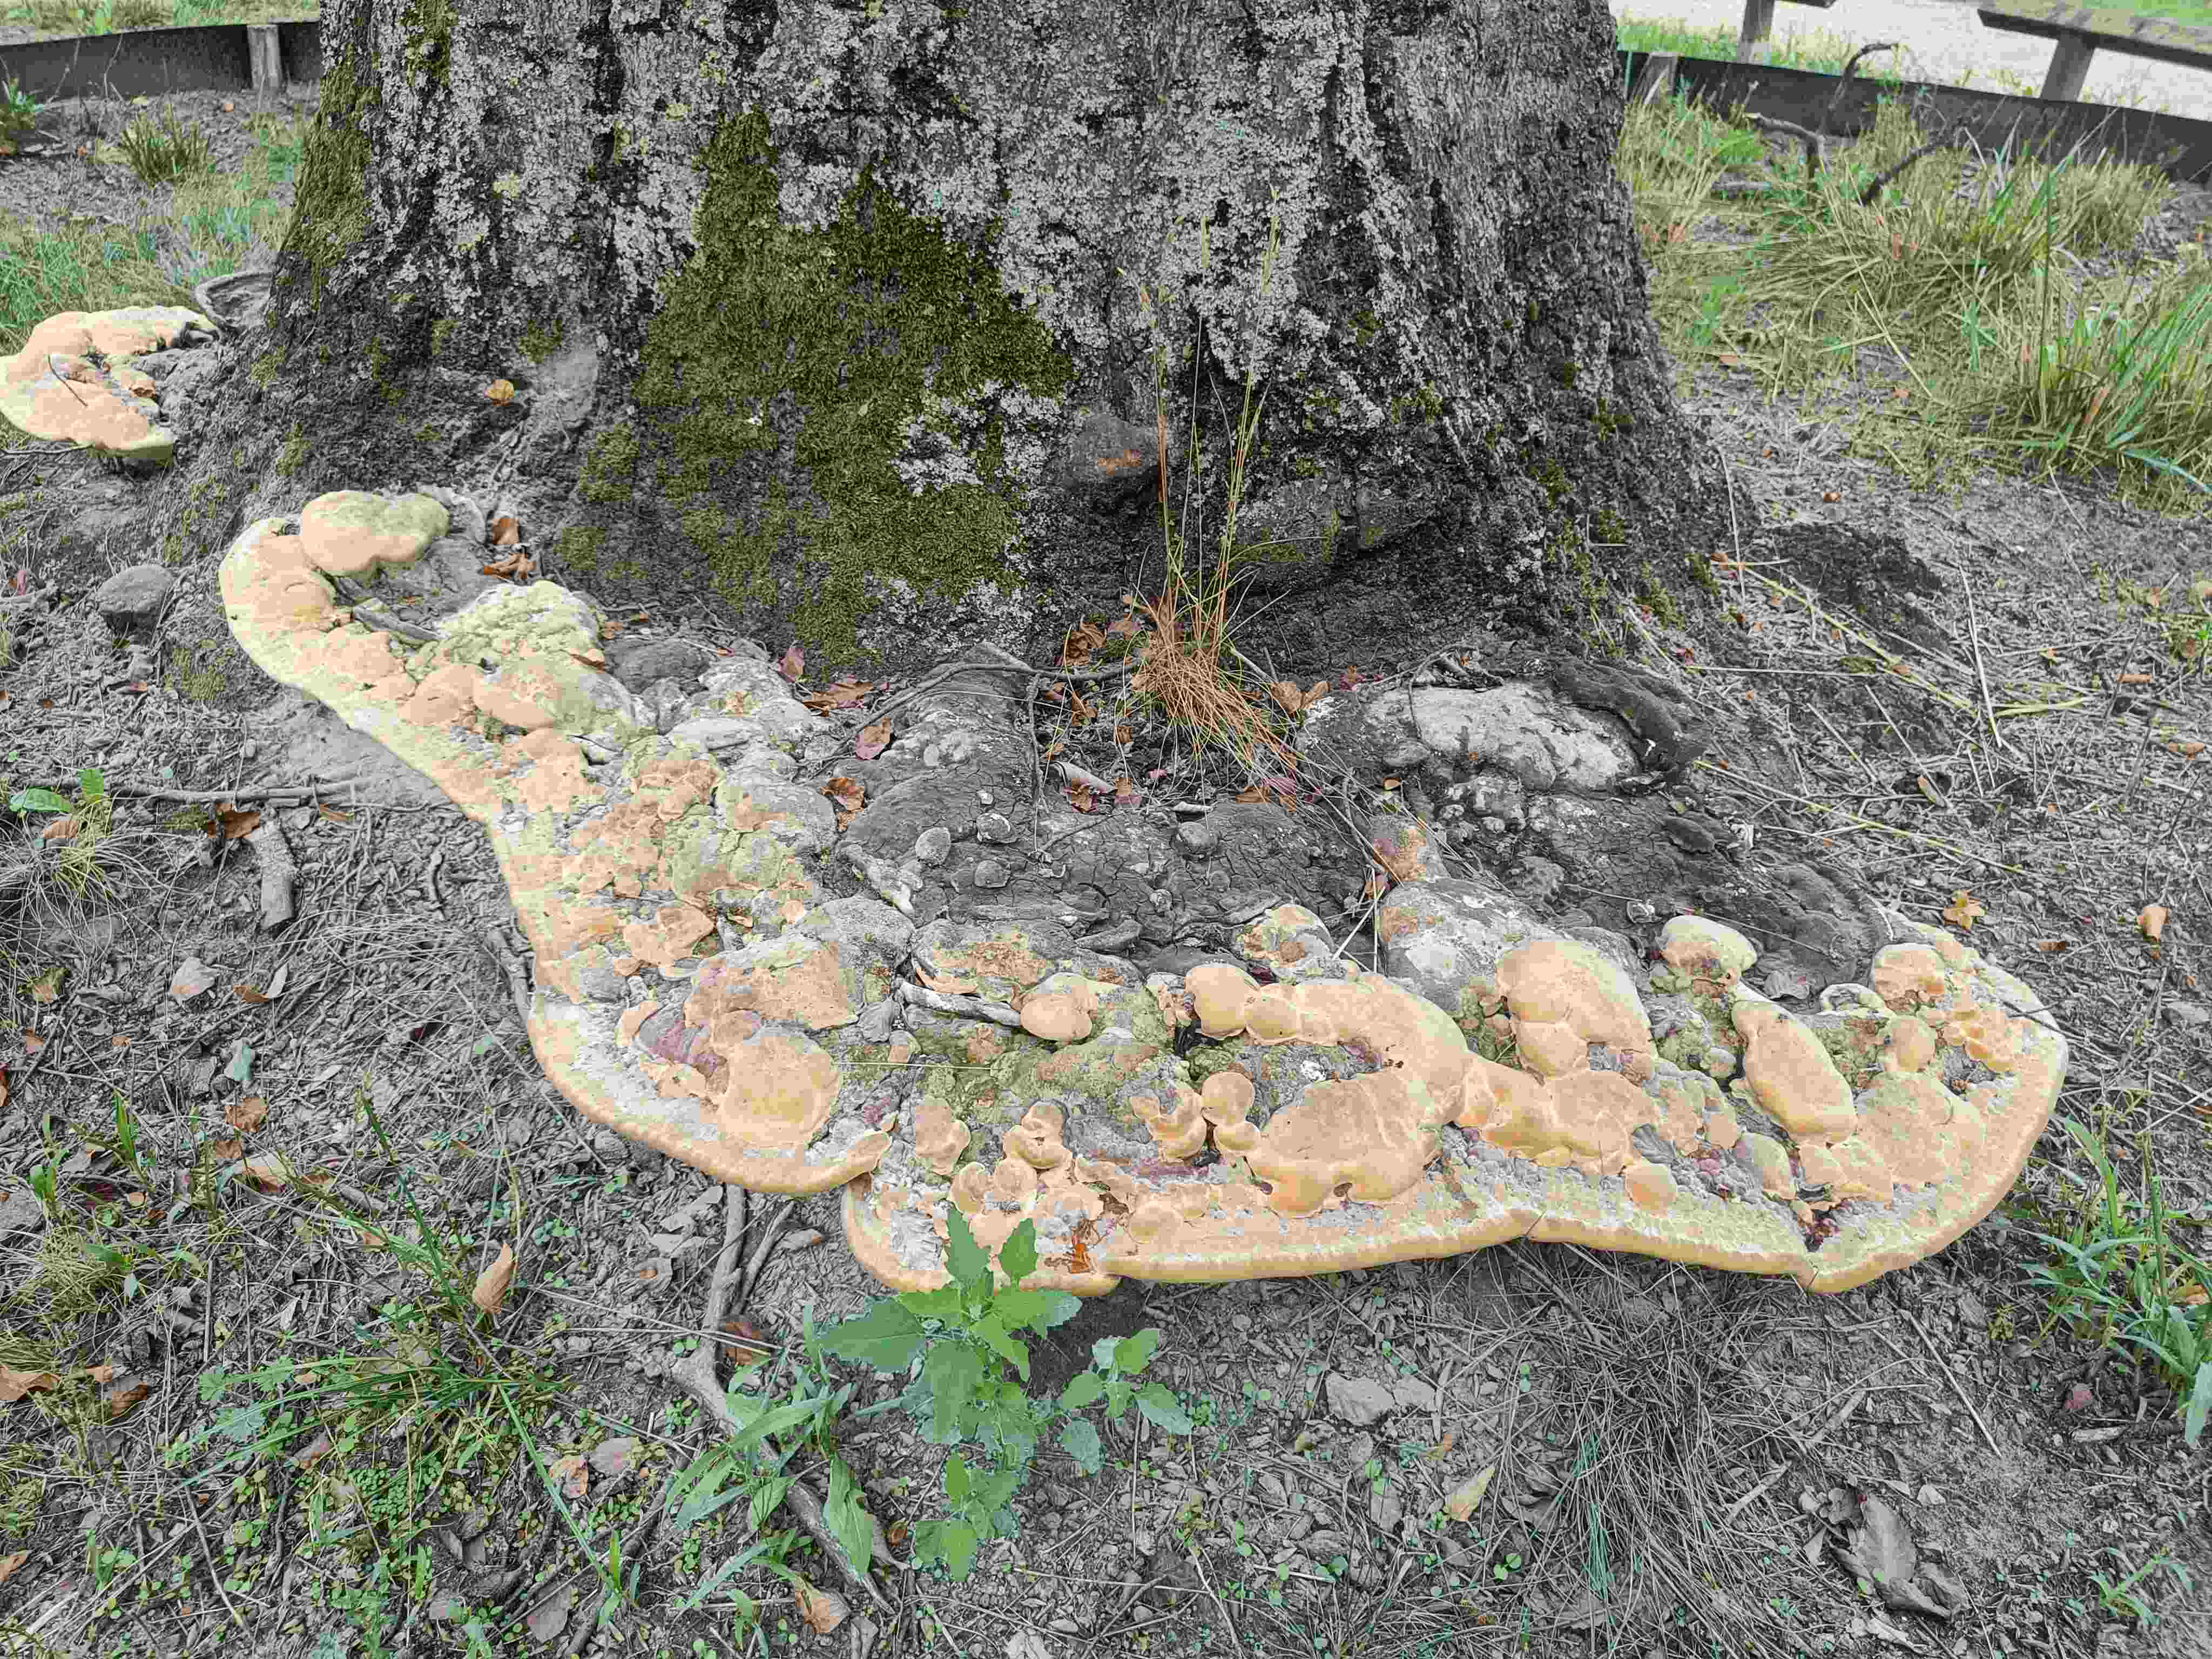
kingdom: Fungi
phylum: Basidiomycota
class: Agaricomycetes
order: Polyporales
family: Polyporaceae
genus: Ganoderma
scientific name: Ganoderma adspersum
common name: grov lakporesvamp
